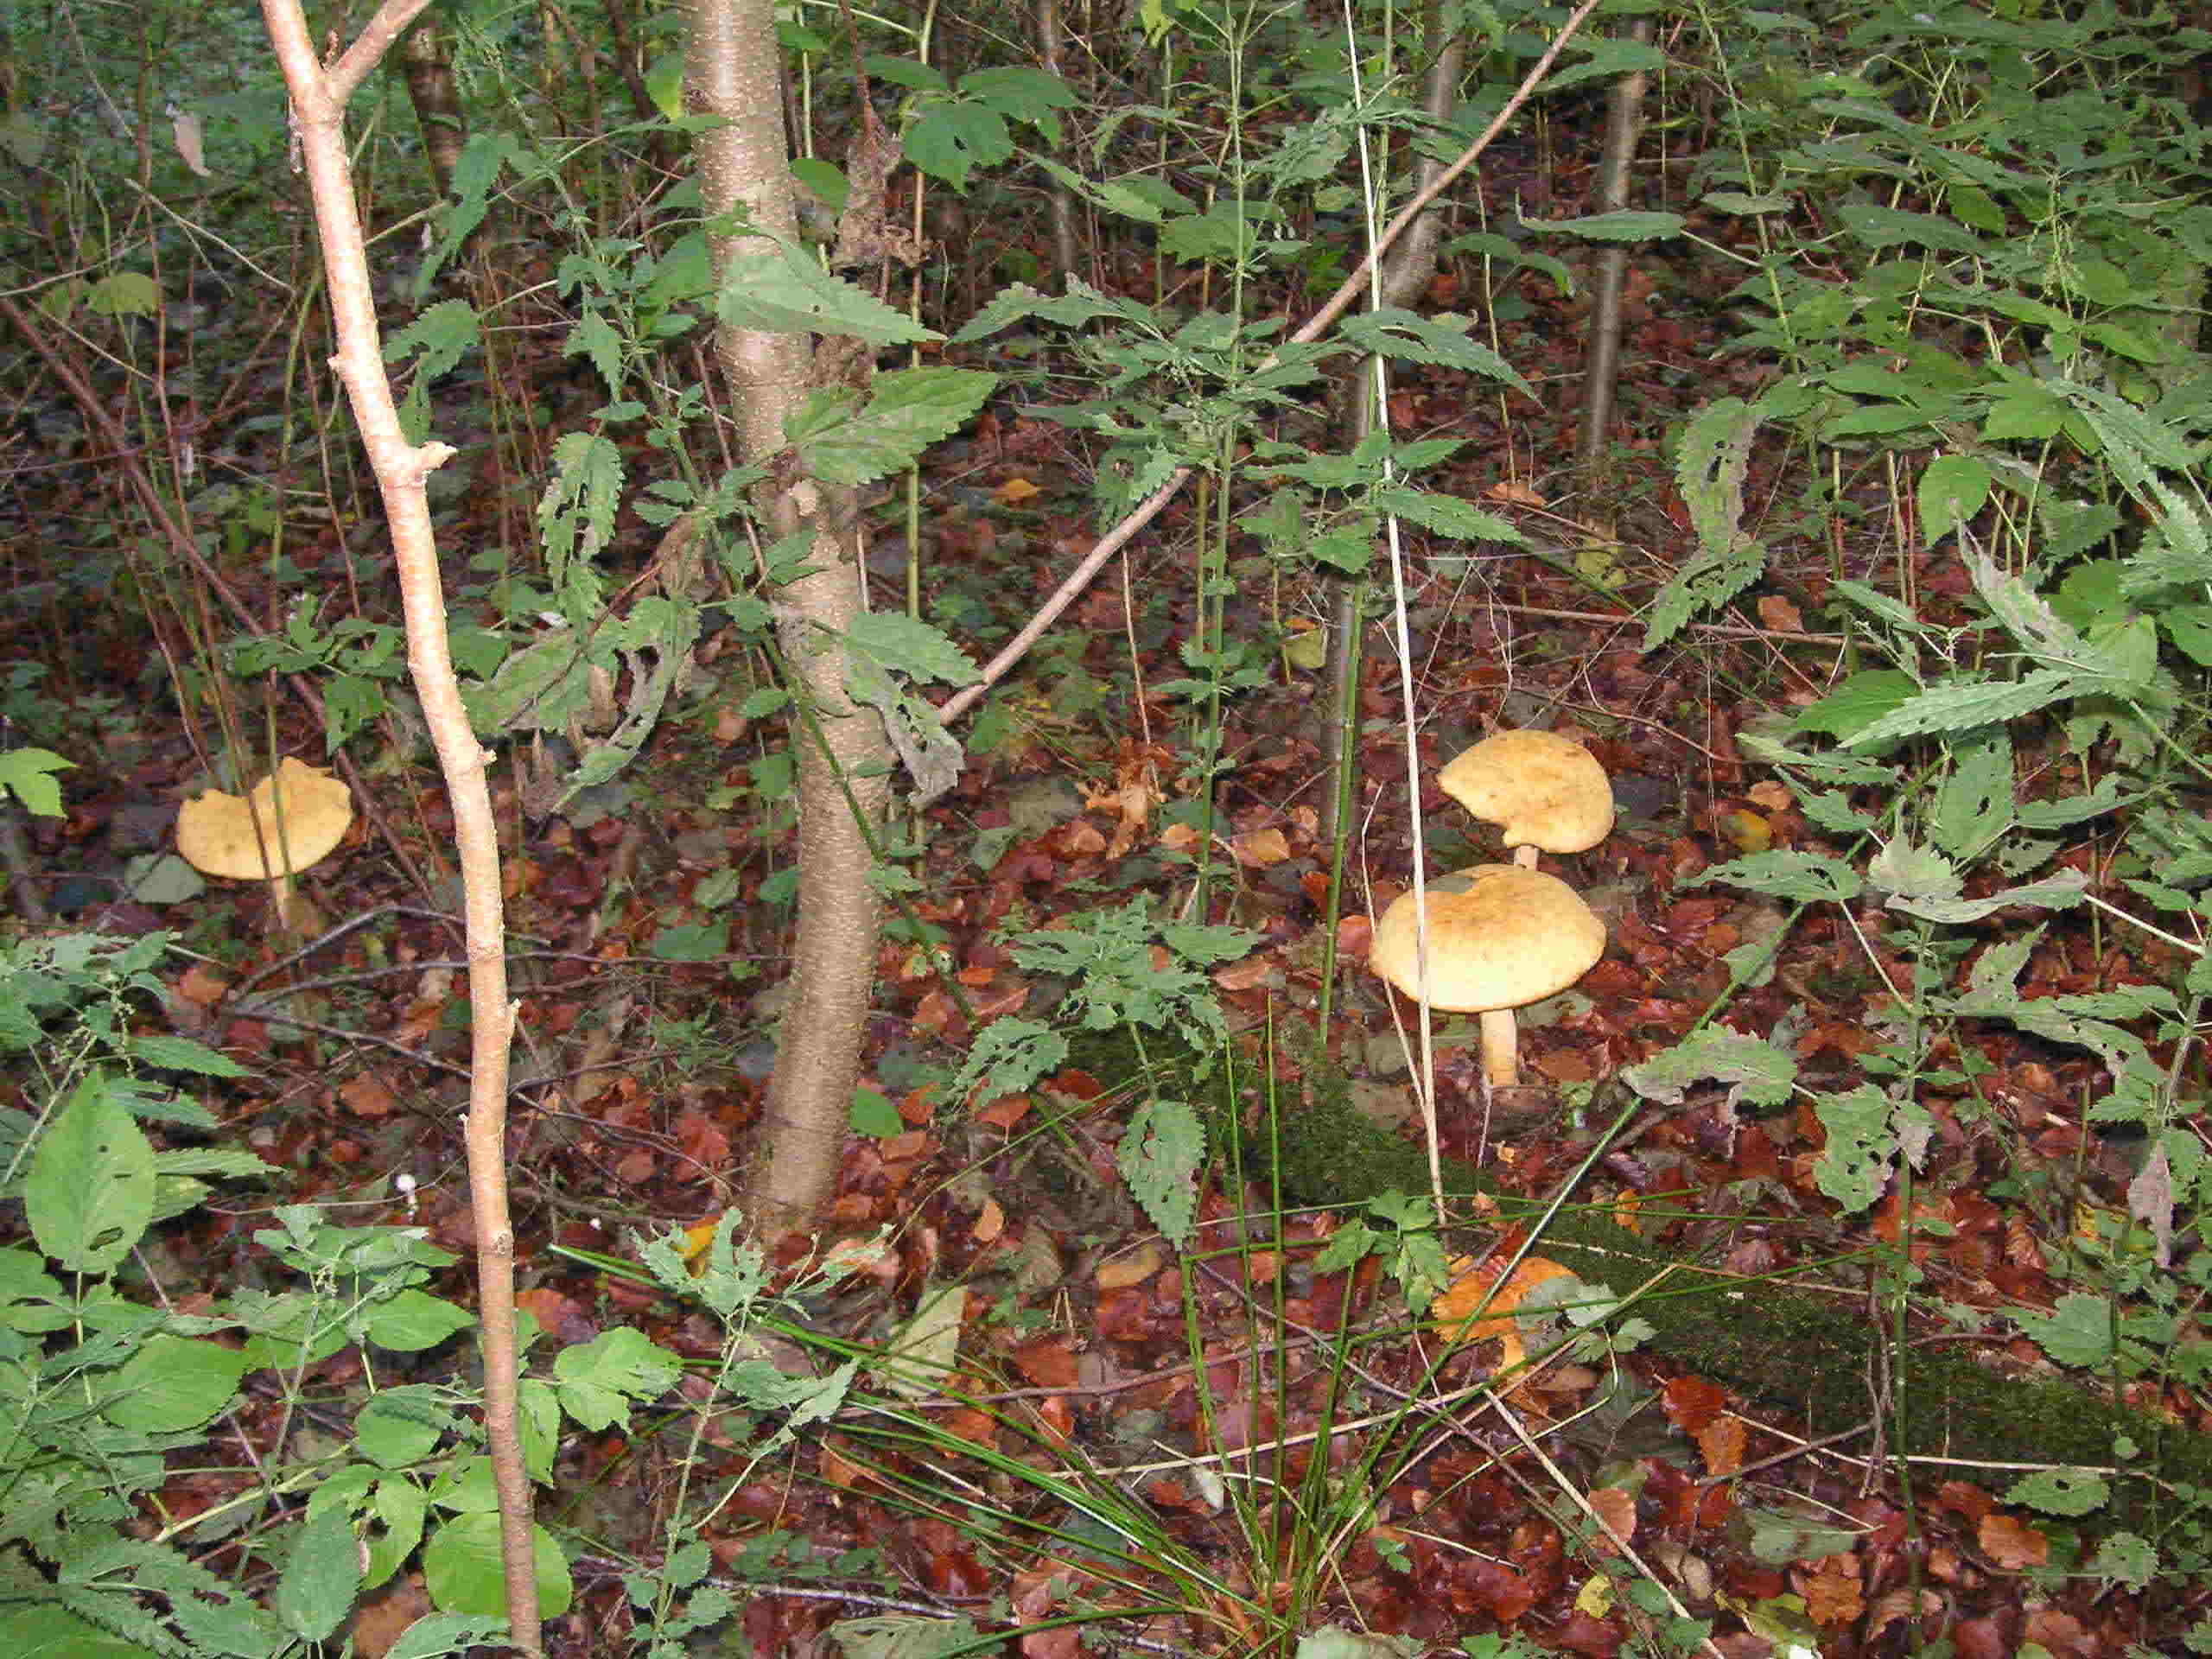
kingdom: Fungi
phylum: Basidiomycota
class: Agaricomycetes
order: Agaricales
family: Tricholomataceae
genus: Phaeolepiota
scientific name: Phaeolepiota aurea
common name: gyldenhat
